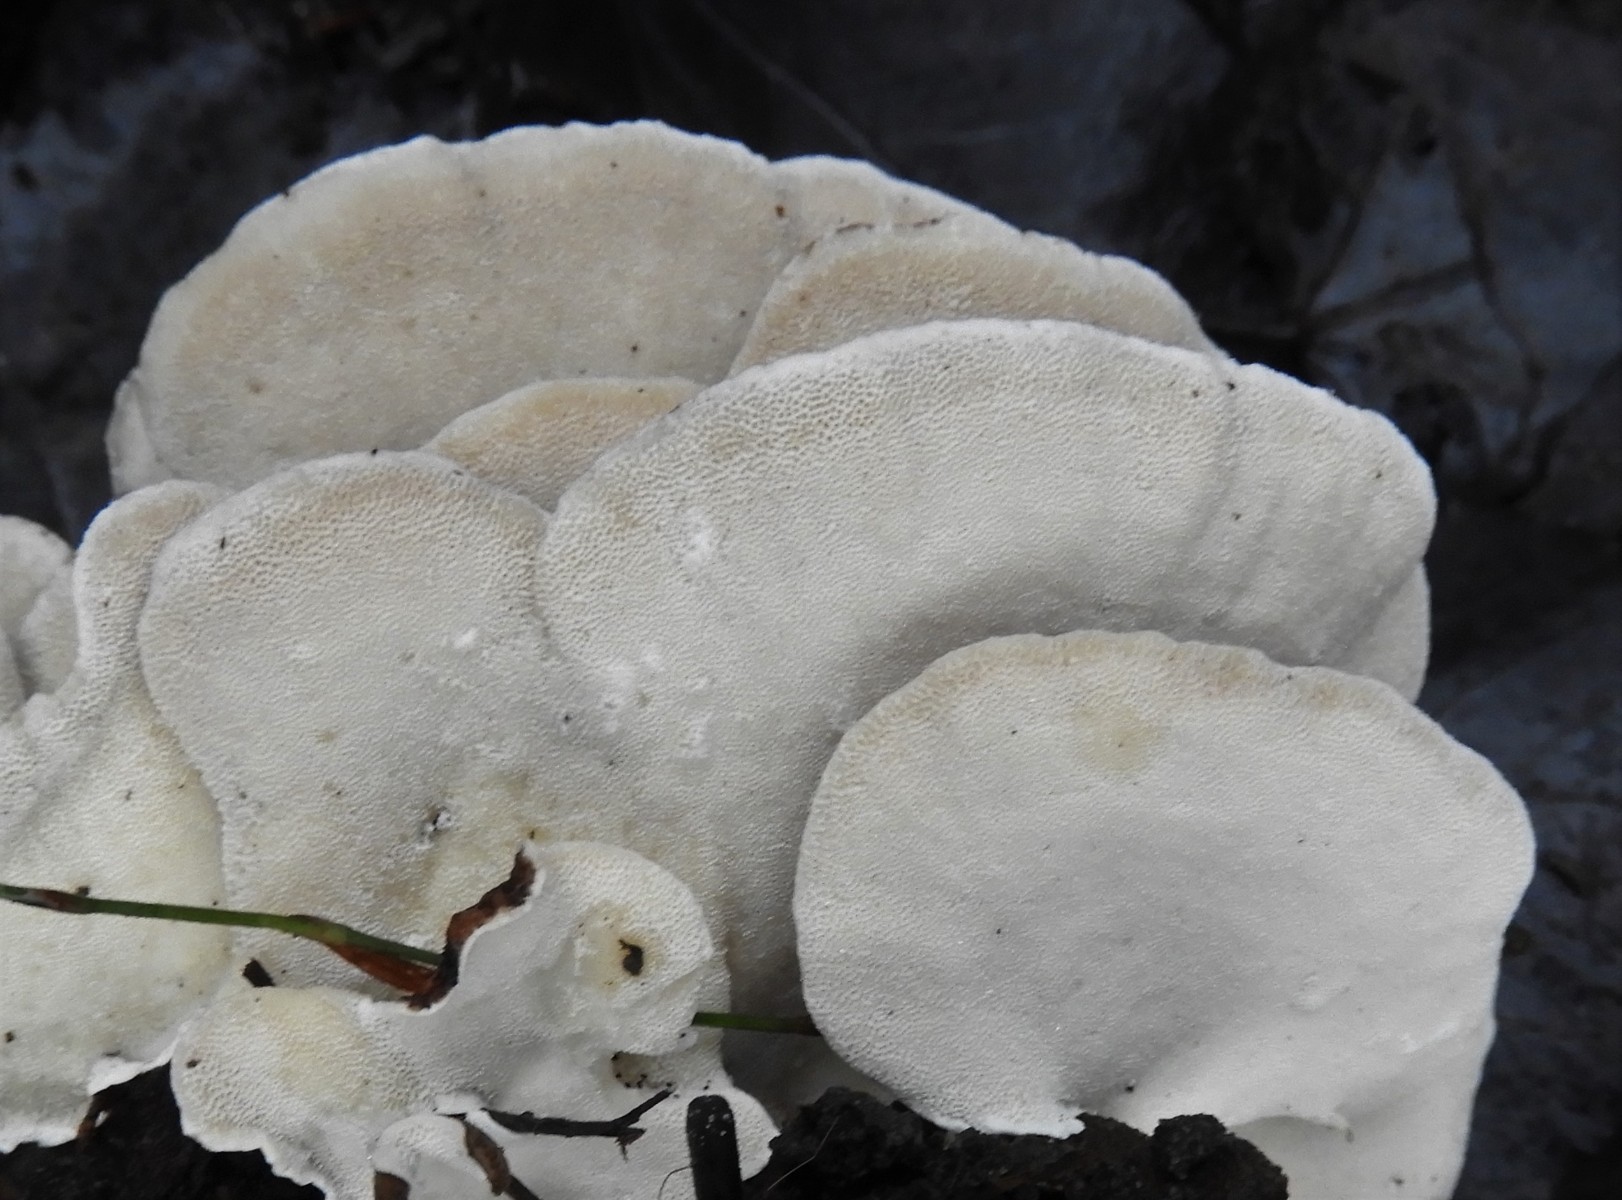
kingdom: Fungi
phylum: Basidiomycota
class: Agaricomycetes
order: Polyporales
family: Polyporaceae
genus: Trametes
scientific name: Trametes versicolor
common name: broget læderporesvamp
